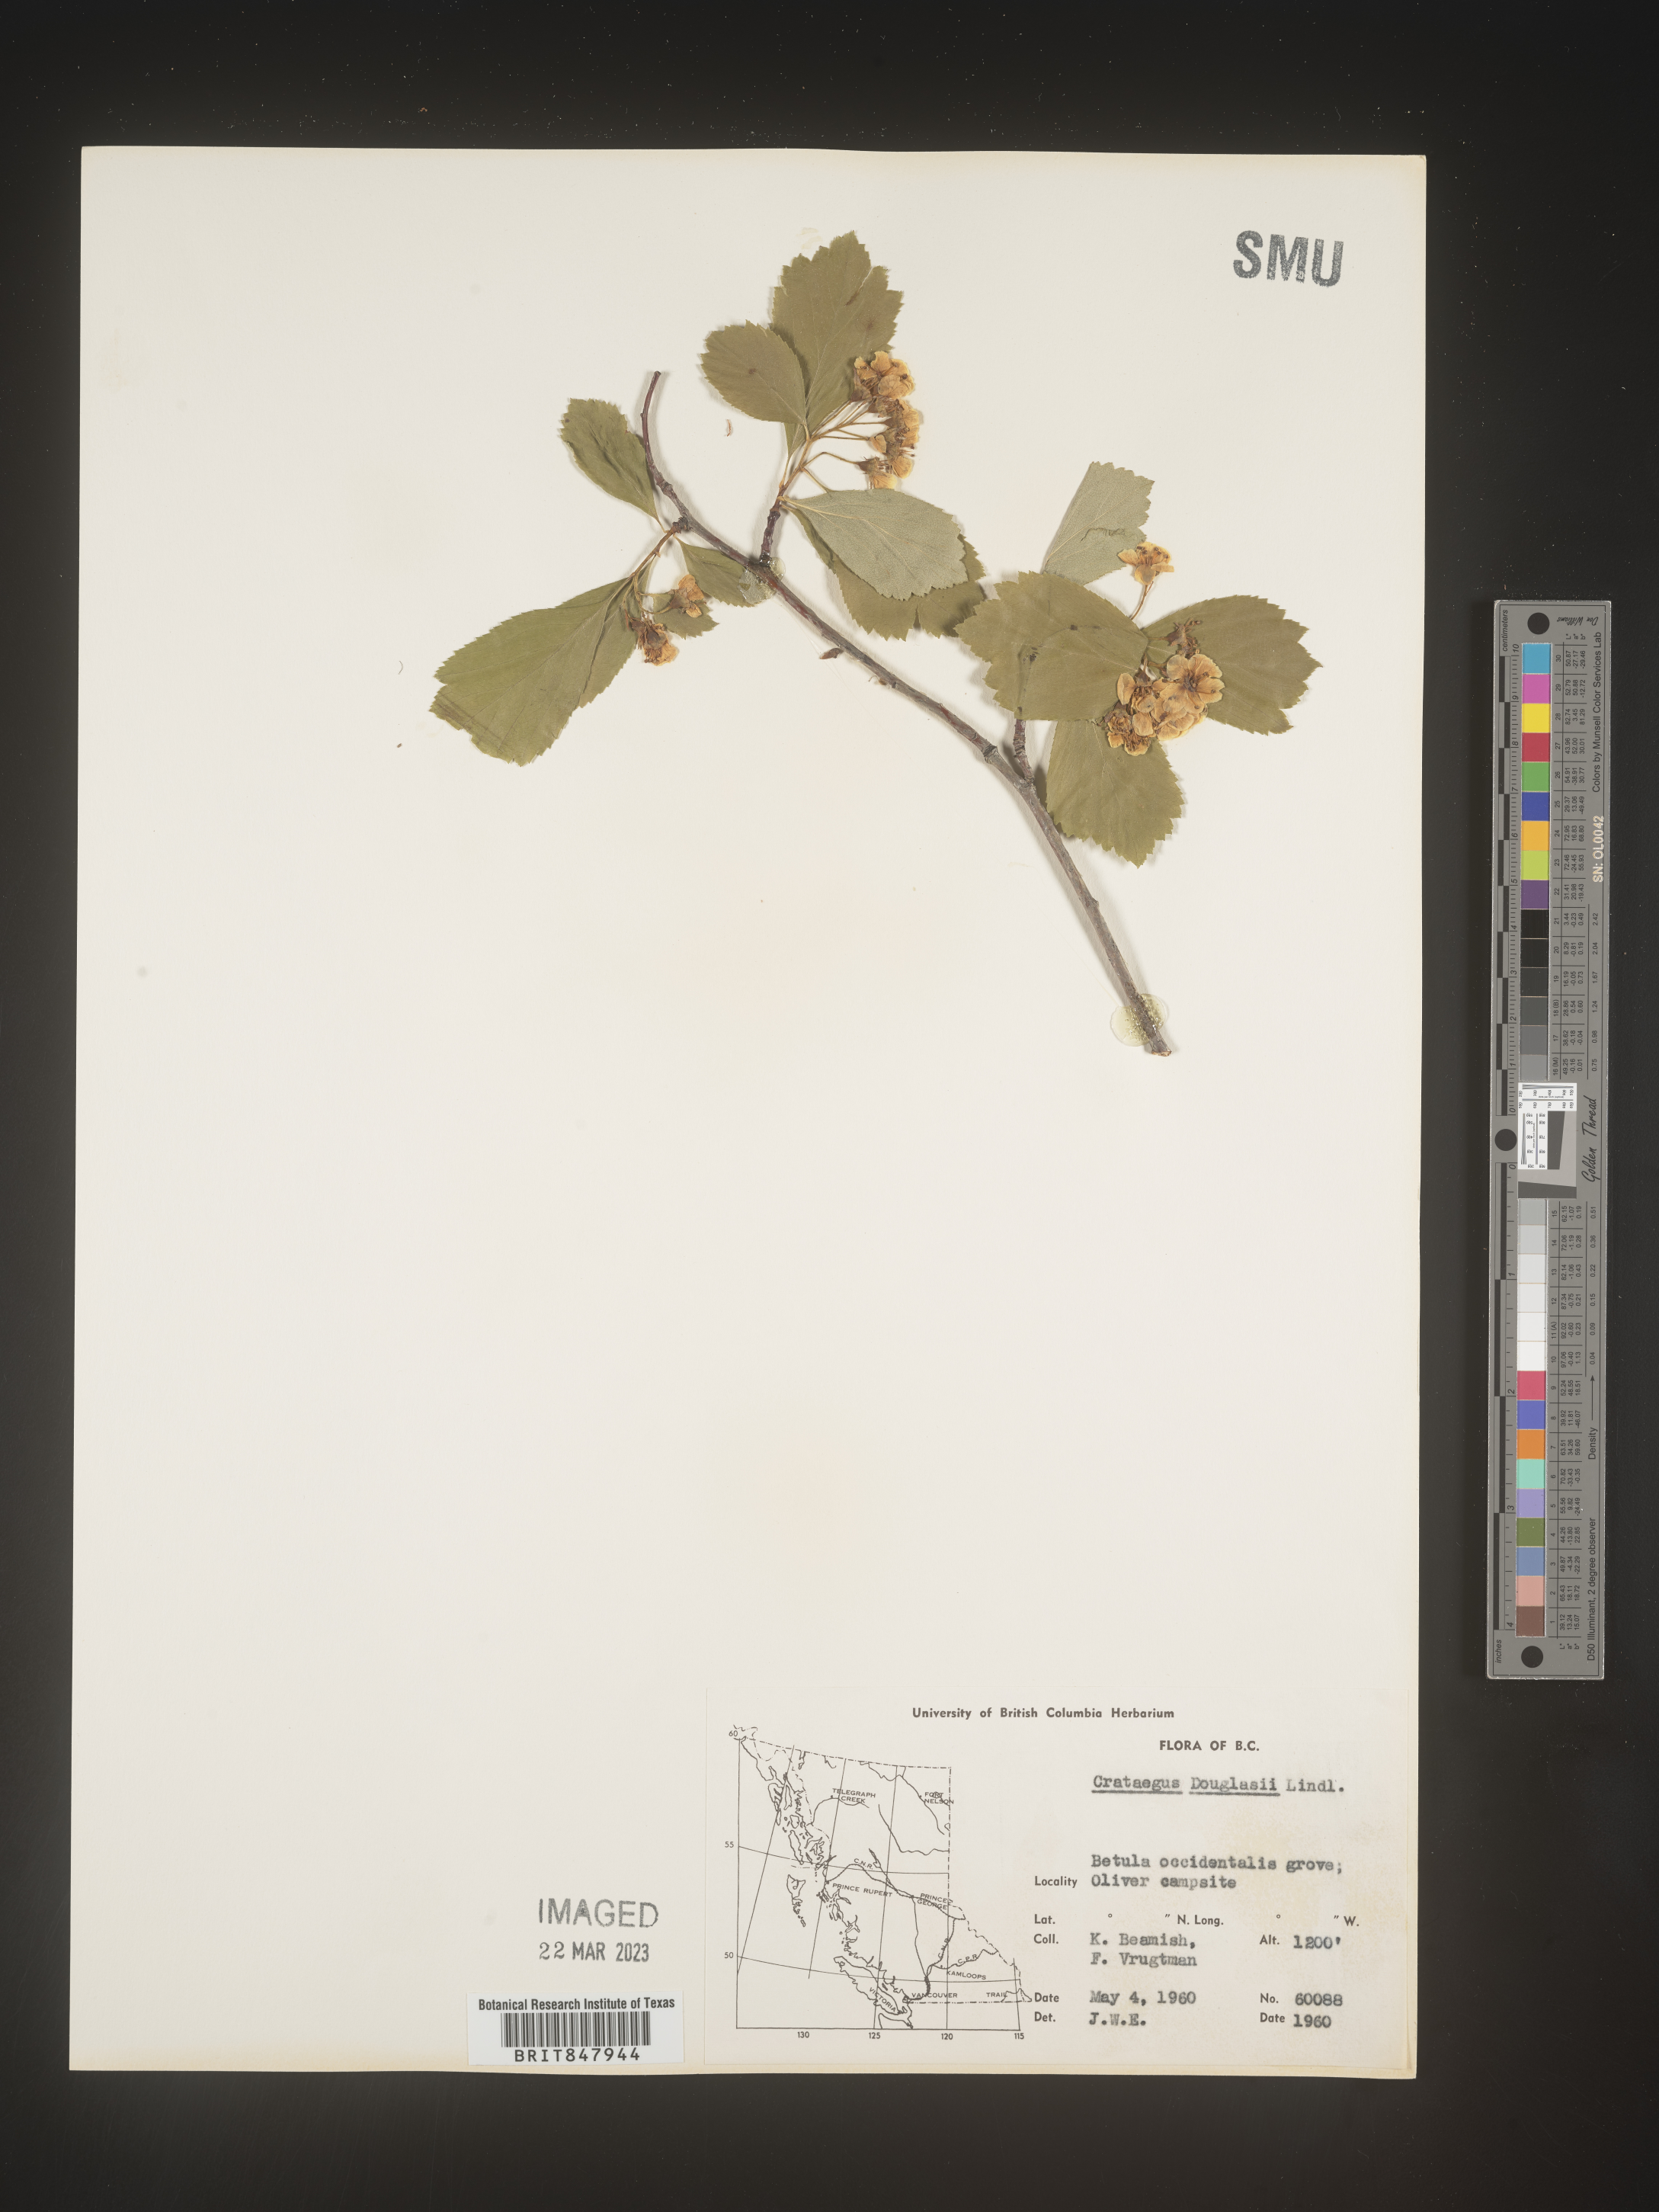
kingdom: Plantae
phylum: Tracheophyta
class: Magnoliopsida
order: Rosales
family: Rosaceae
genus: Crataegus
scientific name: Crataegus douglasii
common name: Black hawthorn
